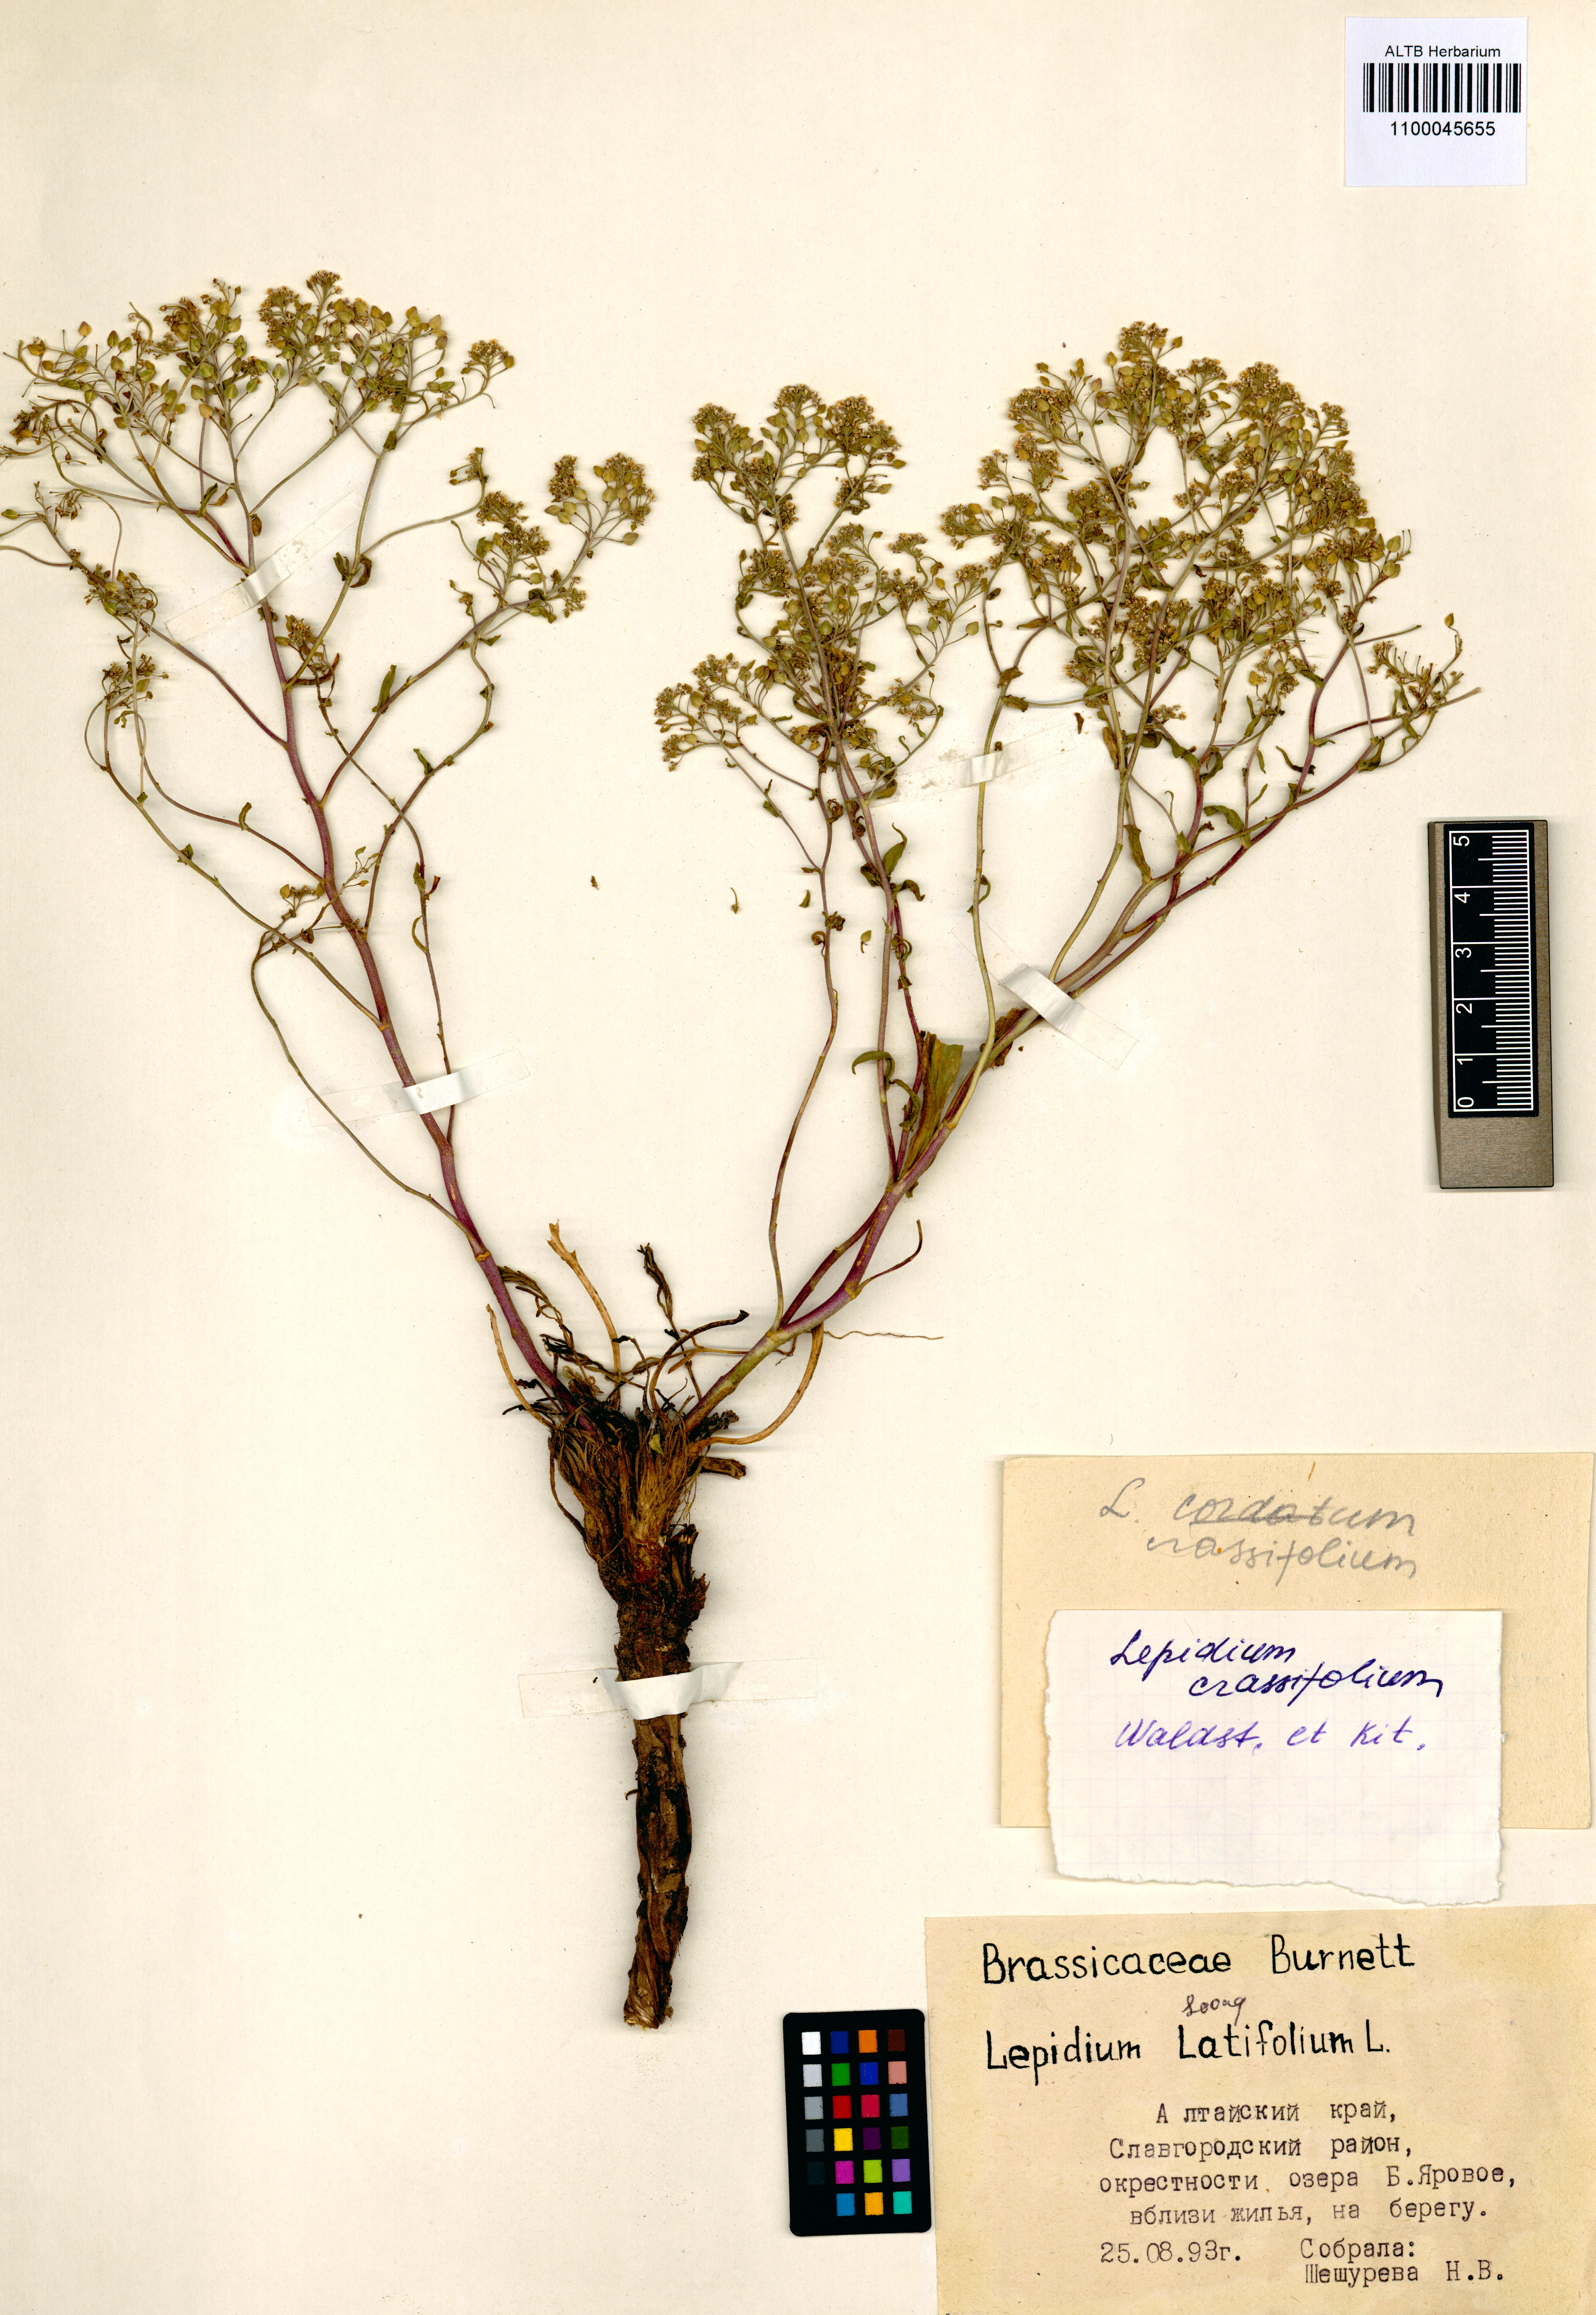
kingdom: Plantae
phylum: Tracheophyta
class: Magnoliopsida
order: Brassicales
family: Brassicaceae
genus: Lepidium
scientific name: Lepidium cartilagineum
